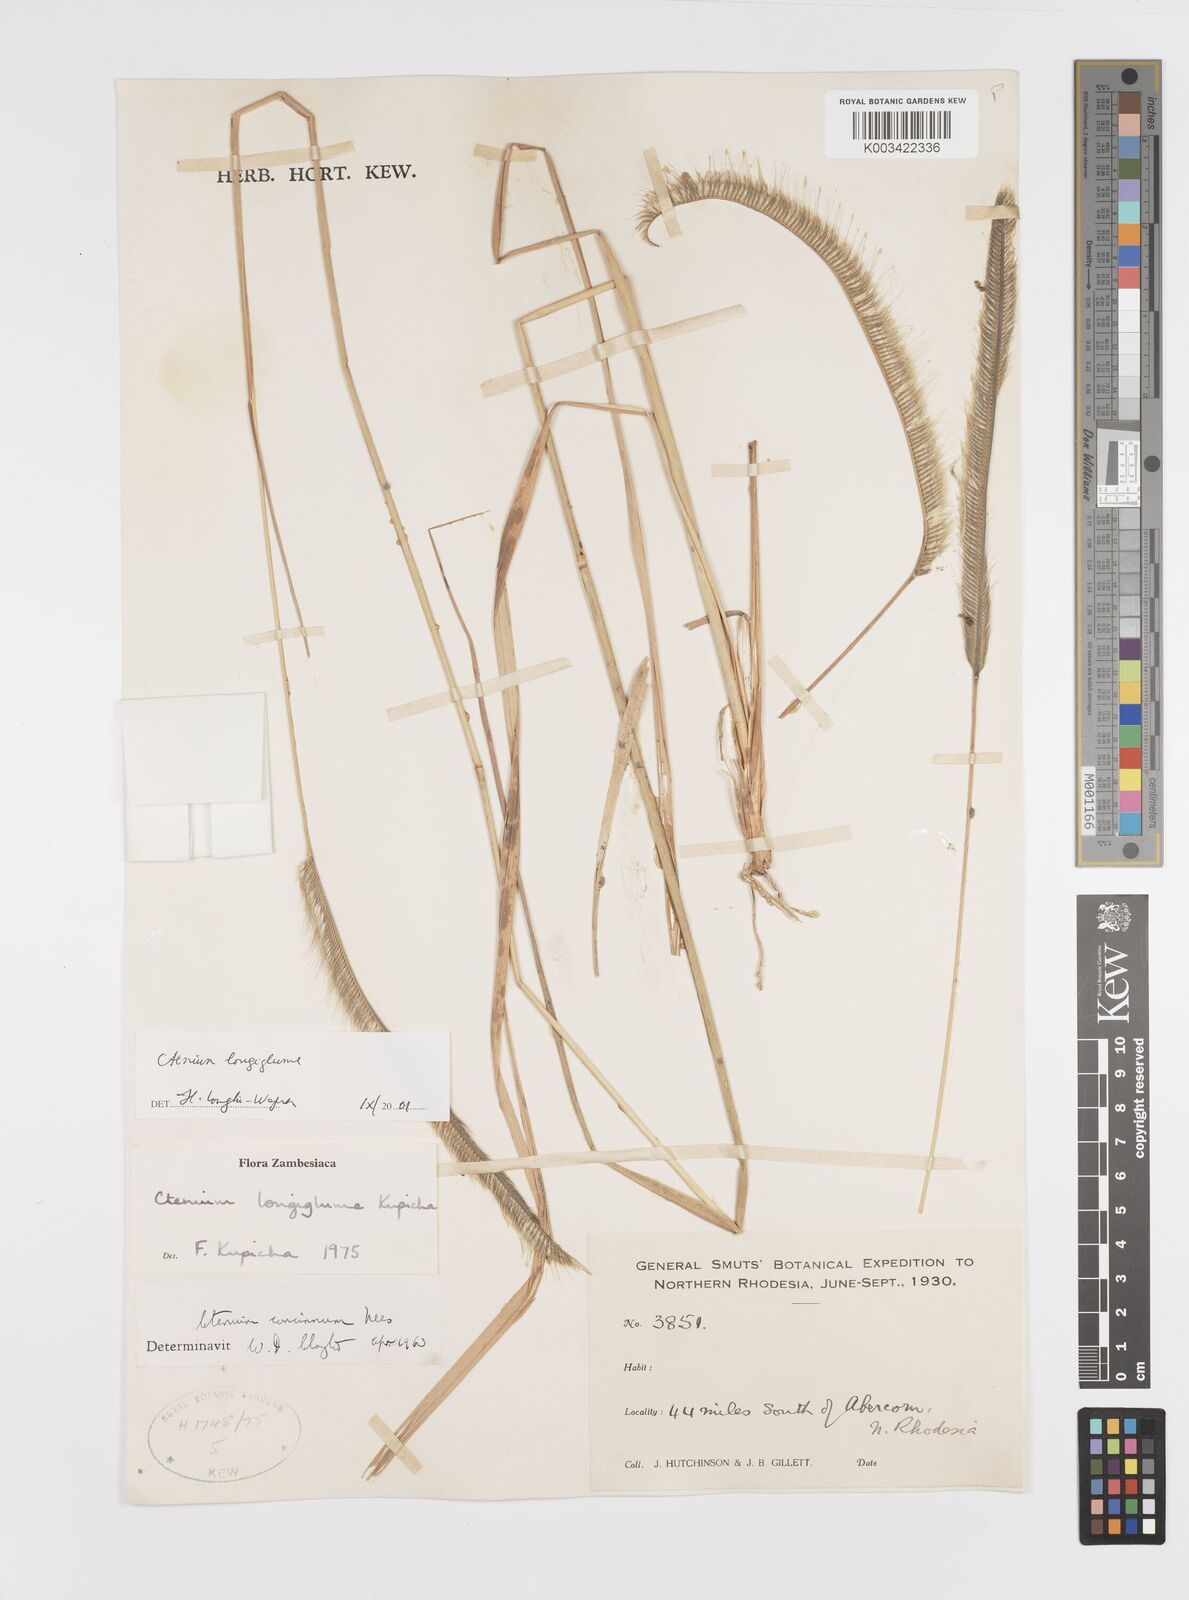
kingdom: Plantae
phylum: Tracheophyta
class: Liliopsida
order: Poales
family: Poaceae
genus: Ctenium
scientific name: Ctenium longiglume
